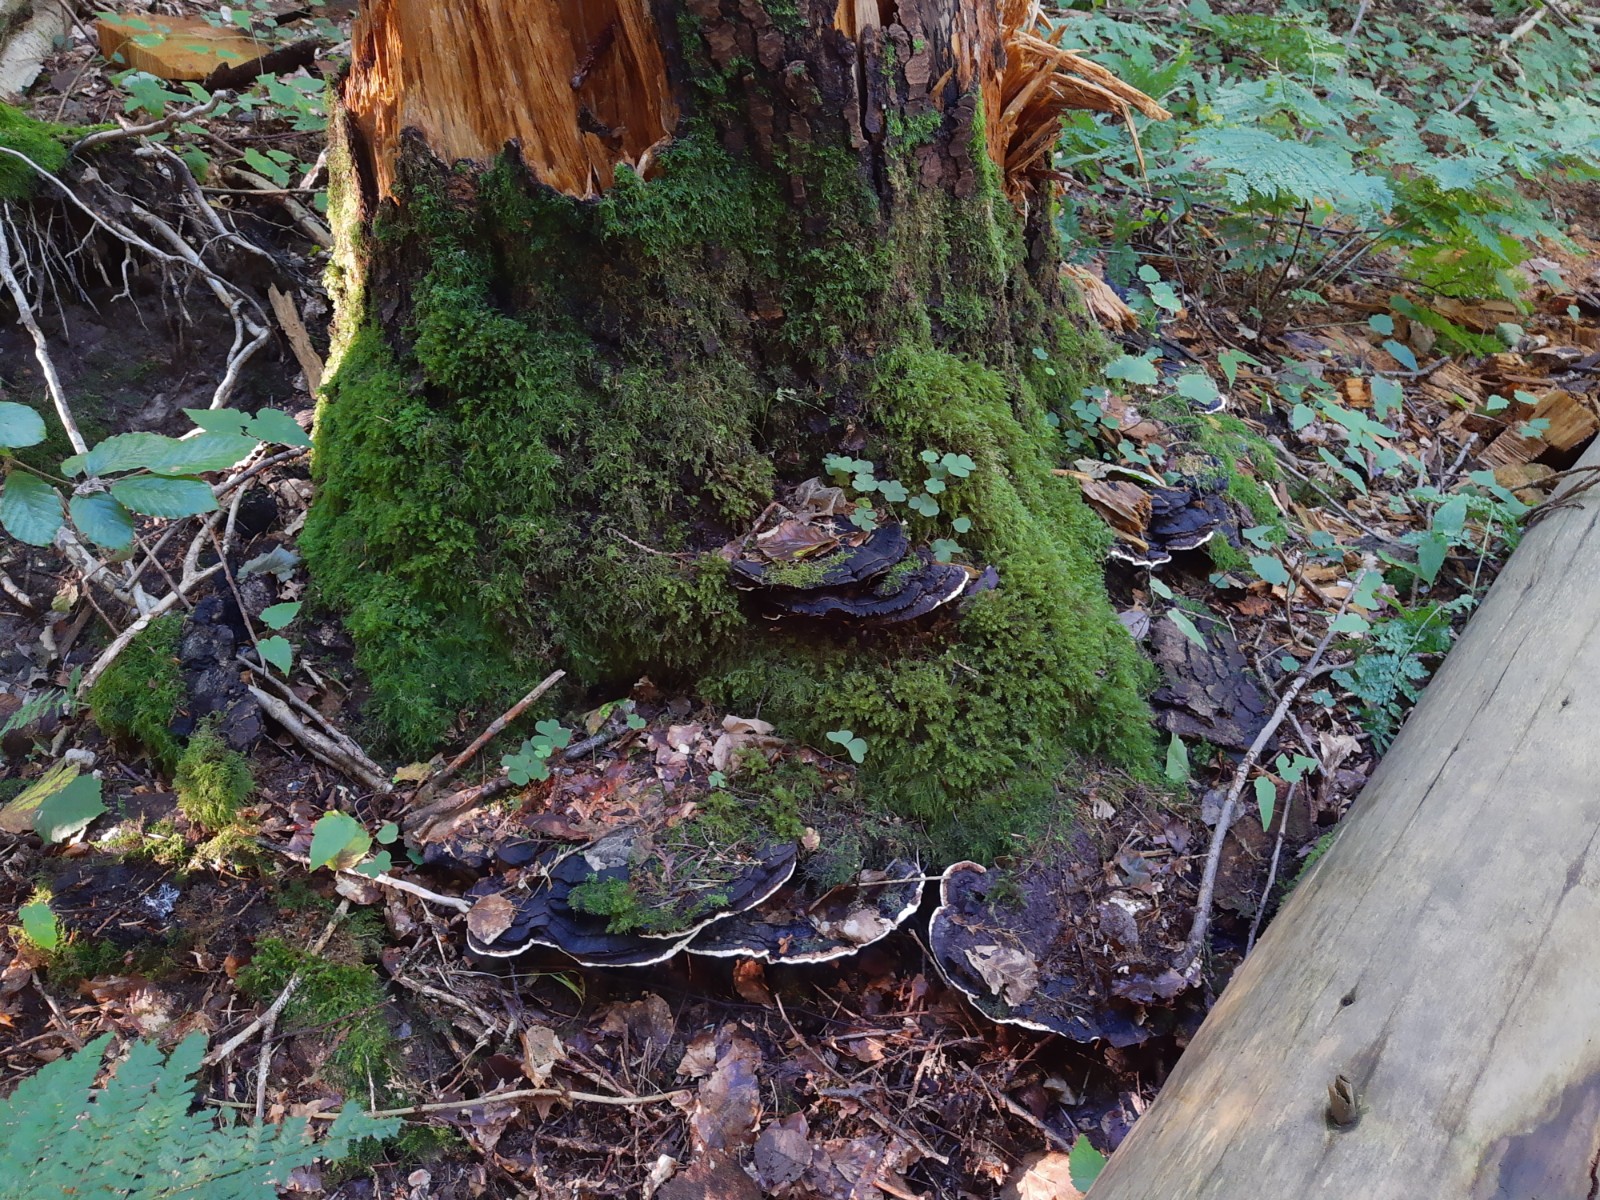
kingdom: Fungi
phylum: Basidiomycota
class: Agaricomycetes
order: Russulales
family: Bondarzewiaceae
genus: Heterobasidion
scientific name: Heterobasidion annosum
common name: almindelig rodfordærver
